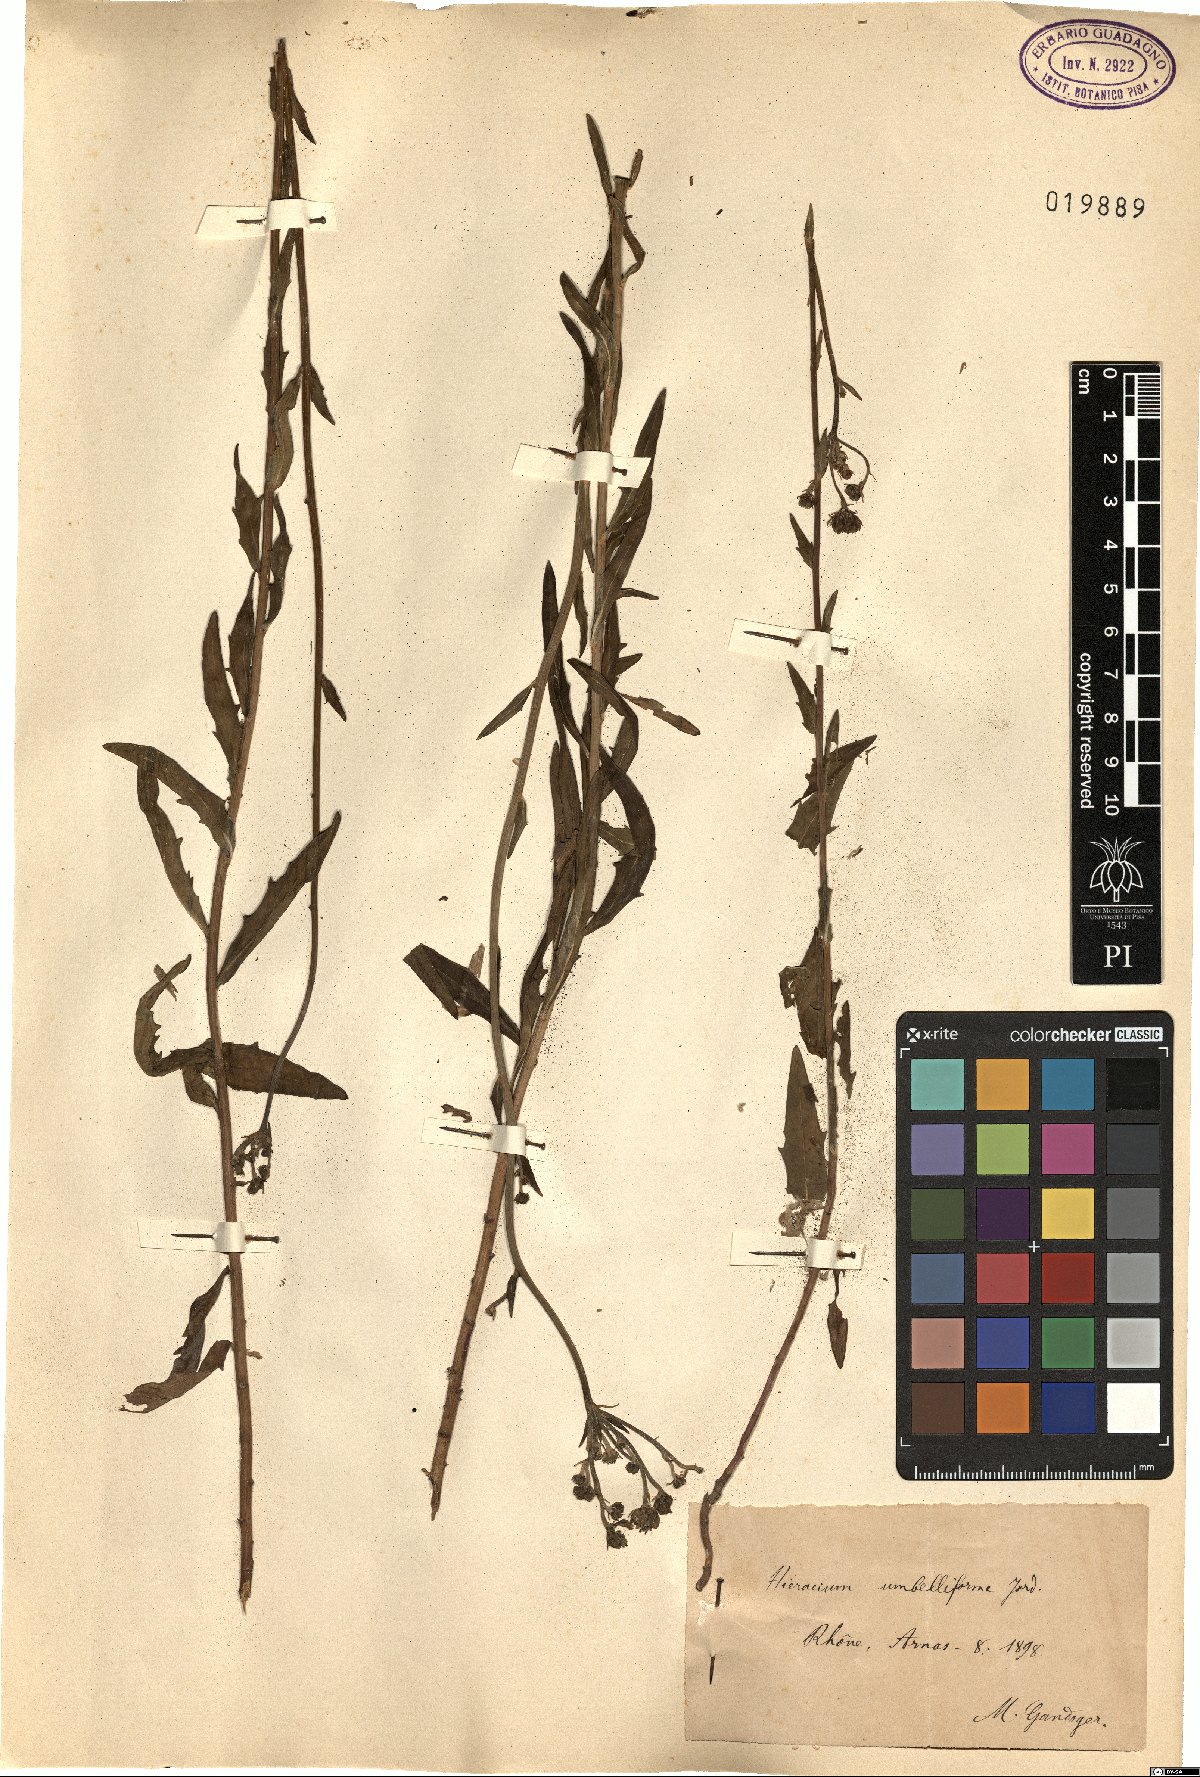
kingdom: Plantae
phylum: Tracheophyta
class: Magnoliopsida
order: Asterales
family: Asteraceae
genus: Pilosella
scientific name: Pilosella densiflora
